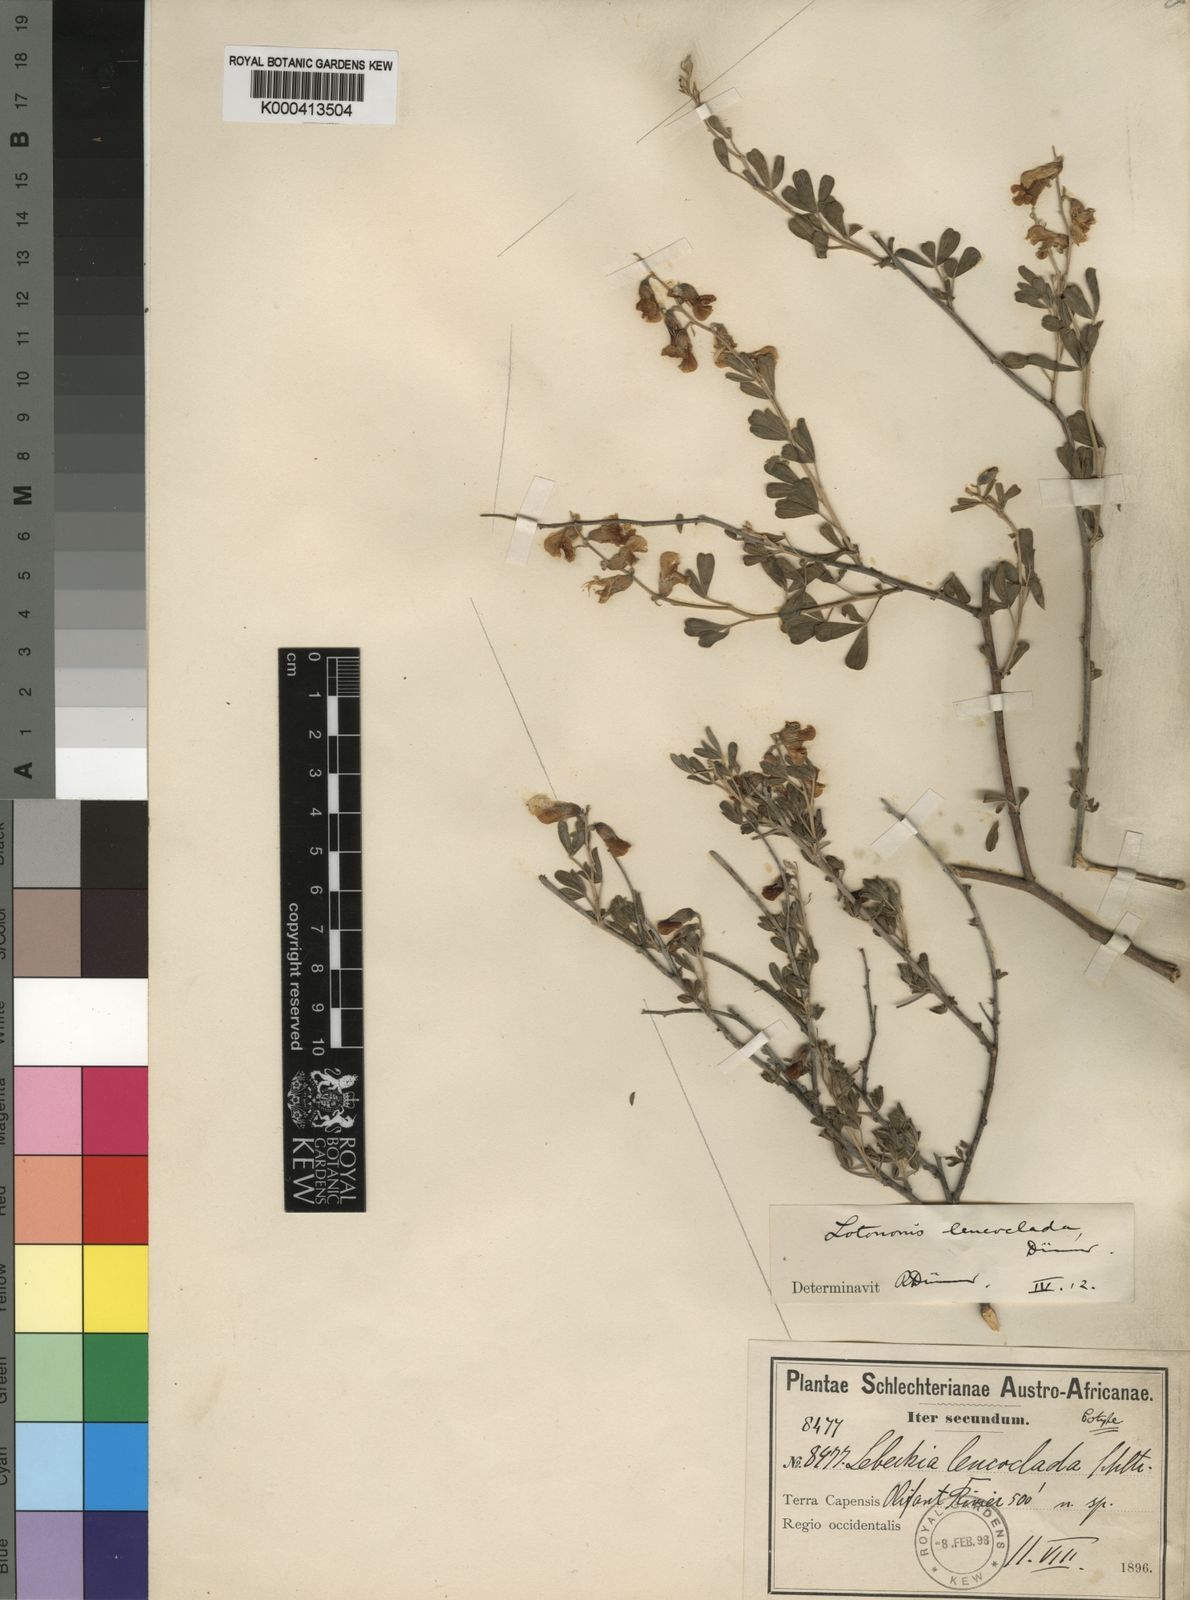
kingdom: Plantae
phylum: Tracheophyta
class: Magnoliopsida
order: Fabales
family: Fabaceae
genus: Lotononis
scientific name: Lotononis densa
